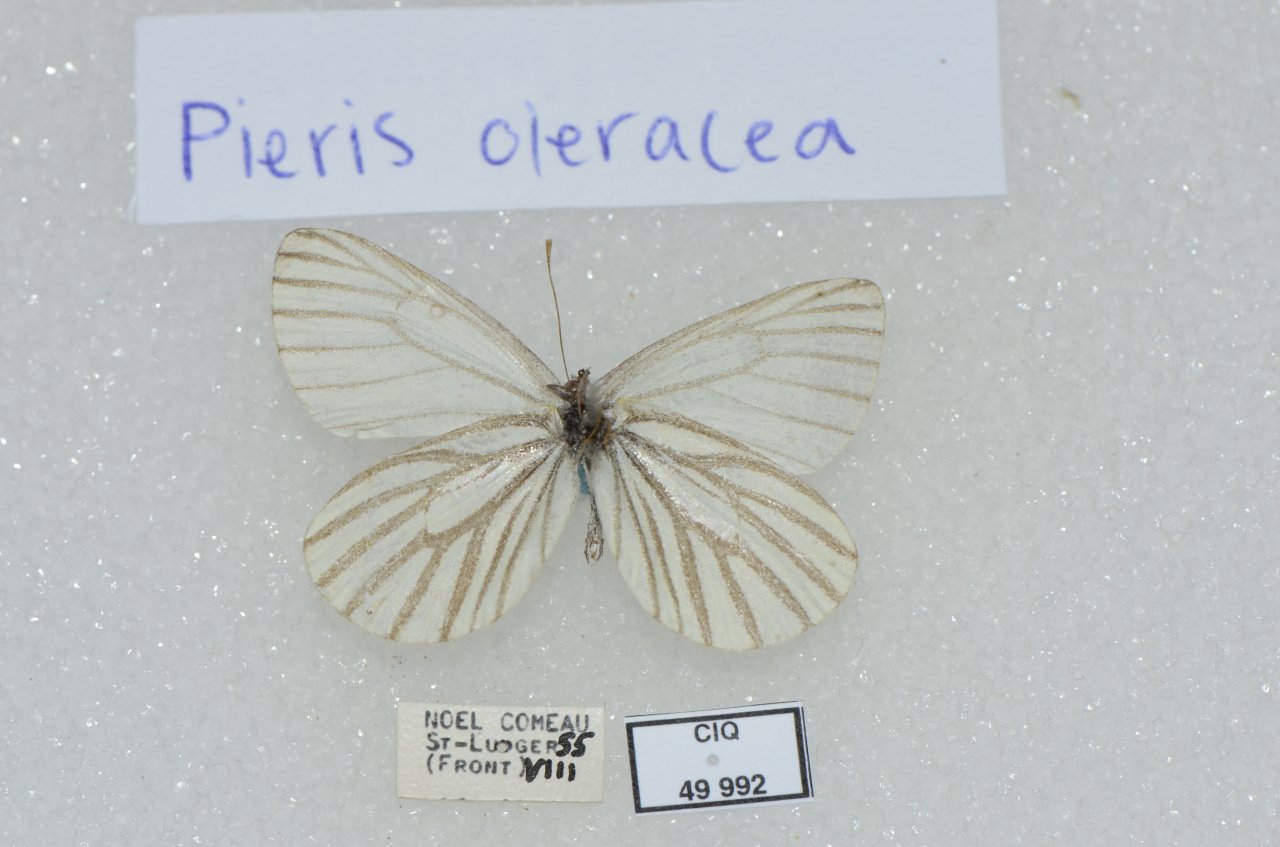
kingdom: Animalia
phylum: Arthropoda
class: Insecta
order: Lepidoptera
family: Pieridae
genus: Pieris
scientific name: Pieris oleracea
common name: Mustard White
